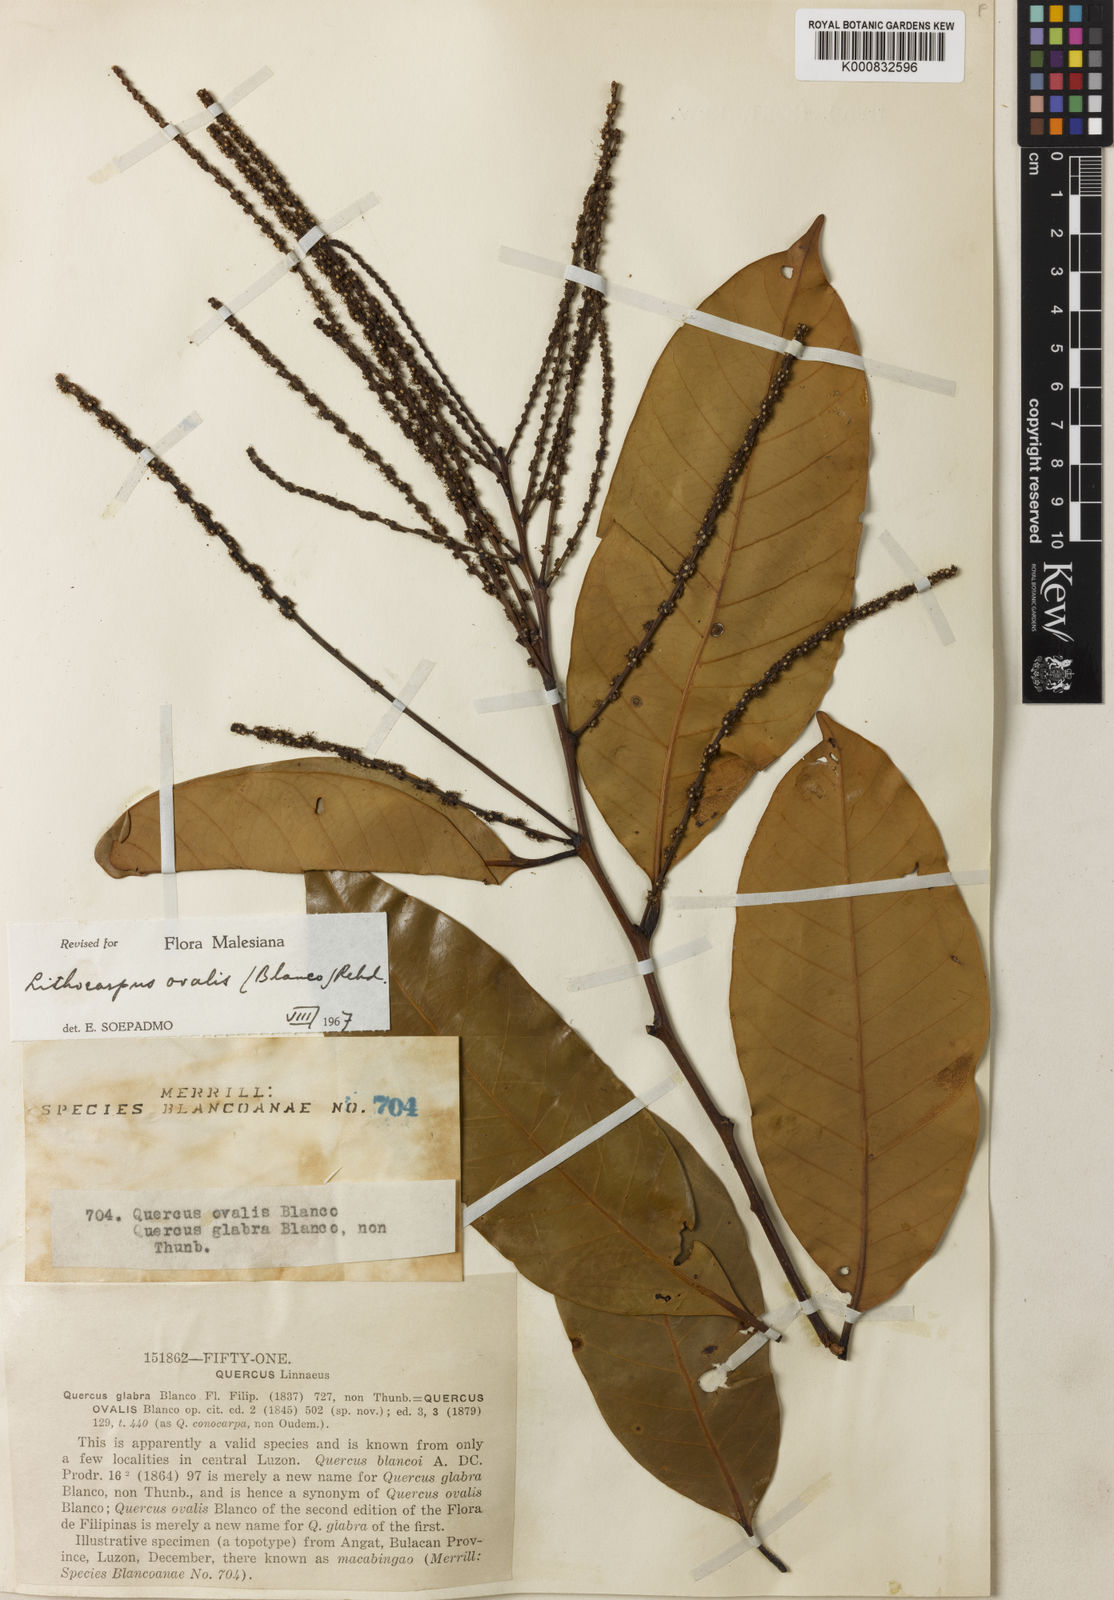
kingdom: Plantae
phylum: Tracheophyta
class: Magnoliopsida
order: Fagales
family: Fagaceae
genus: Lithocarpus
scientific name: Lithocarpus ovalis
